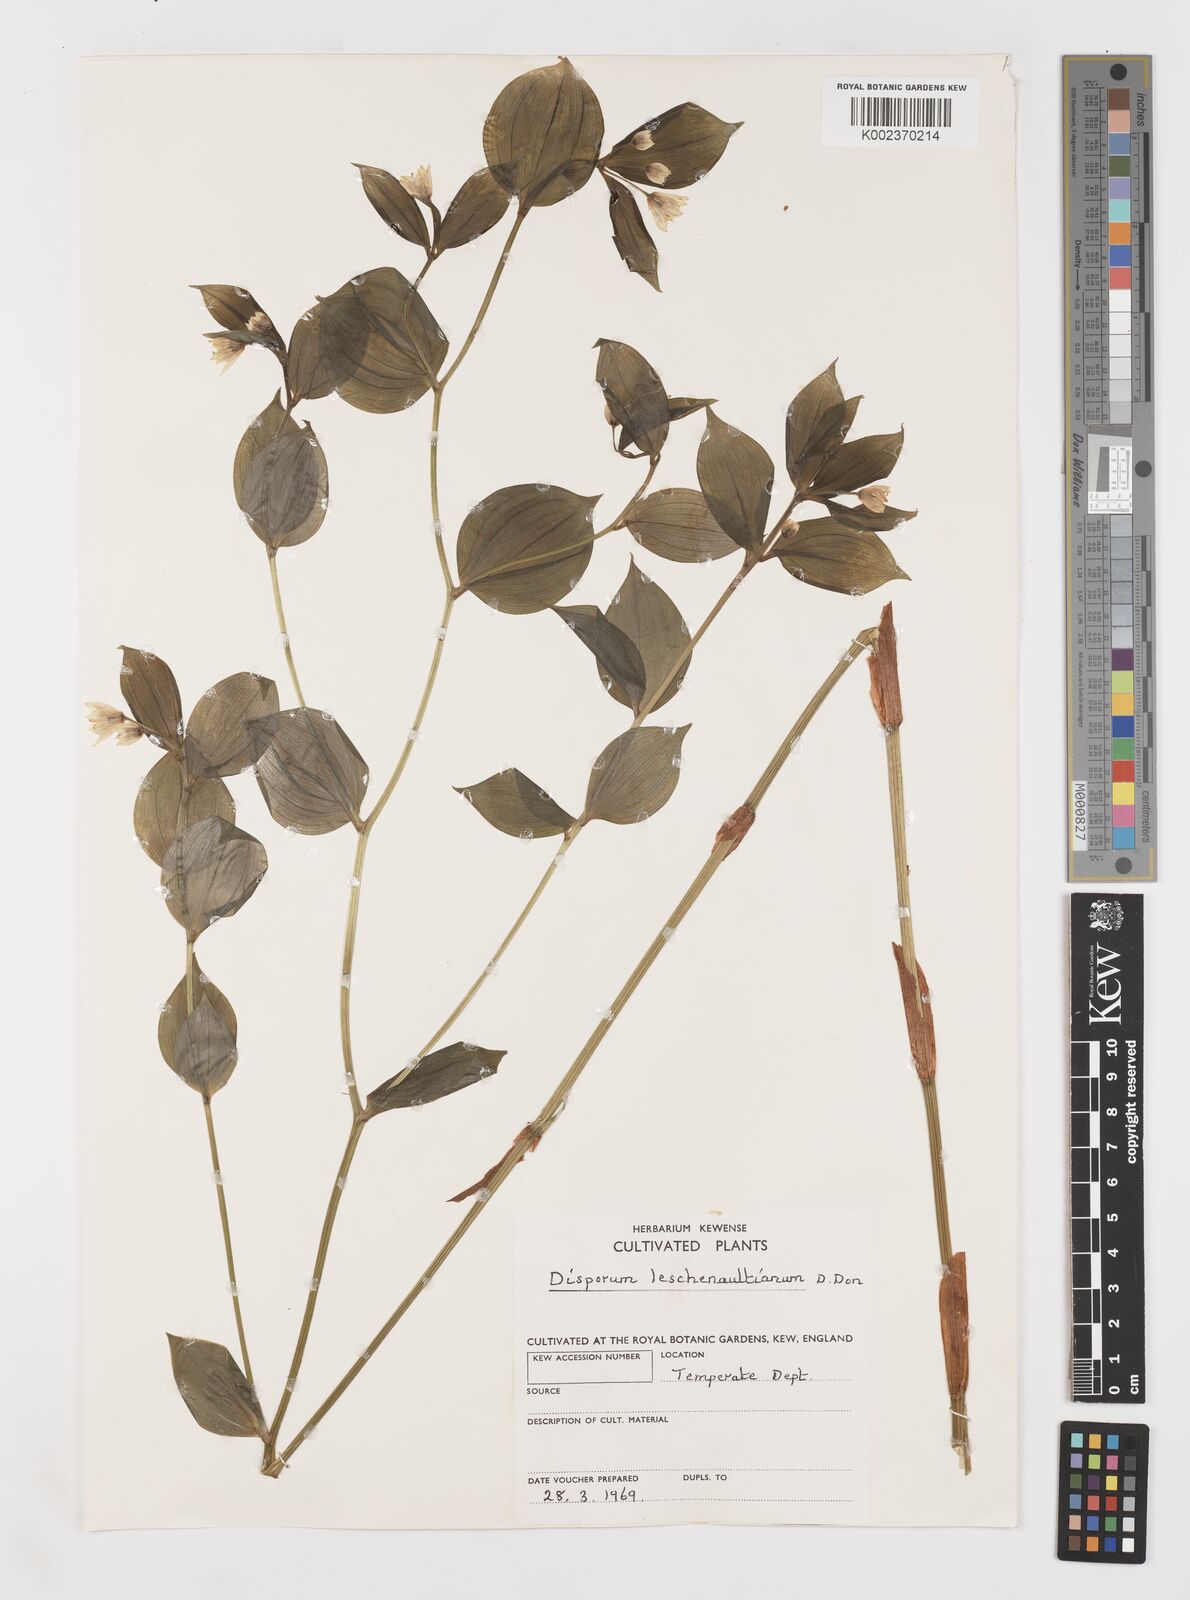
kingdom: Plantae
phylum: Tracheophyta
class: Liliopsida
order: Liliales
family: Colchicaceae
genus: Disporum
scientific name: Disporum cantoniense
